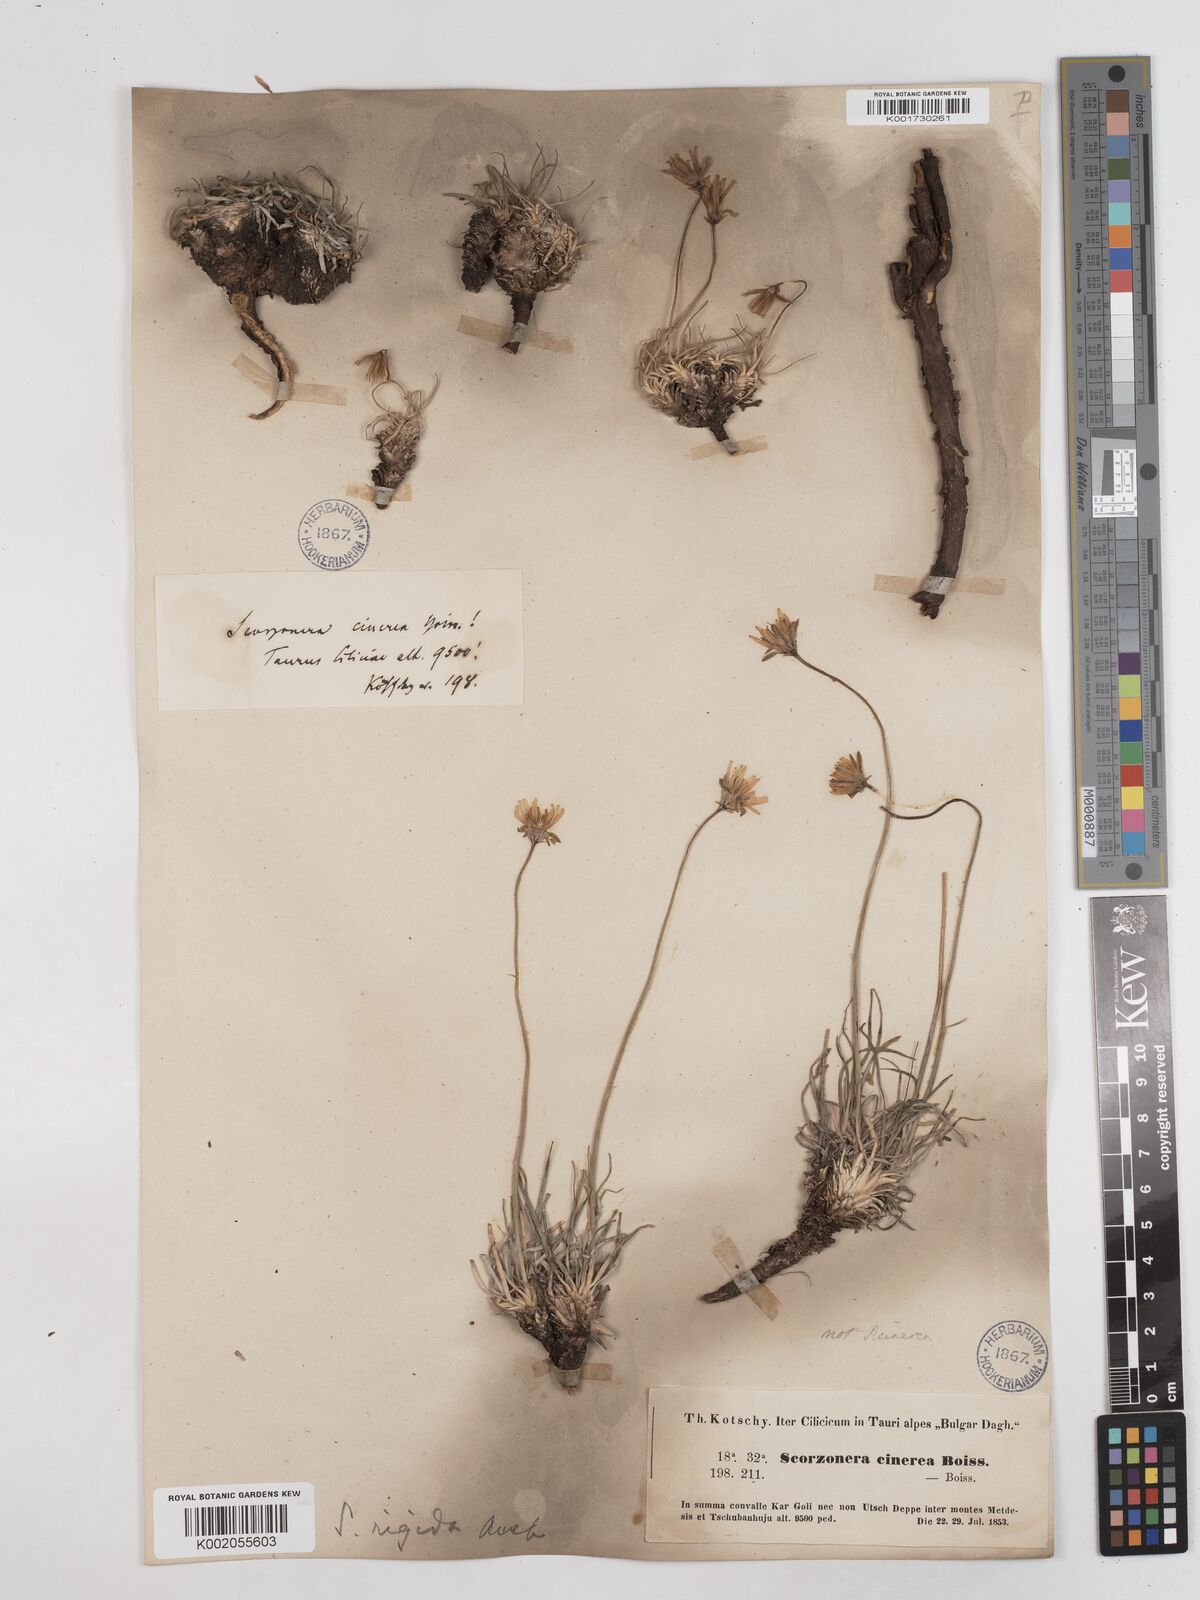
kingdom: Plantae
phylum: Tracheophyta
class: Magnoliopsida
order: Asterales
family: Asteraceae
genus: Goekyighitia
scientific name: Goekyighitia rigida
